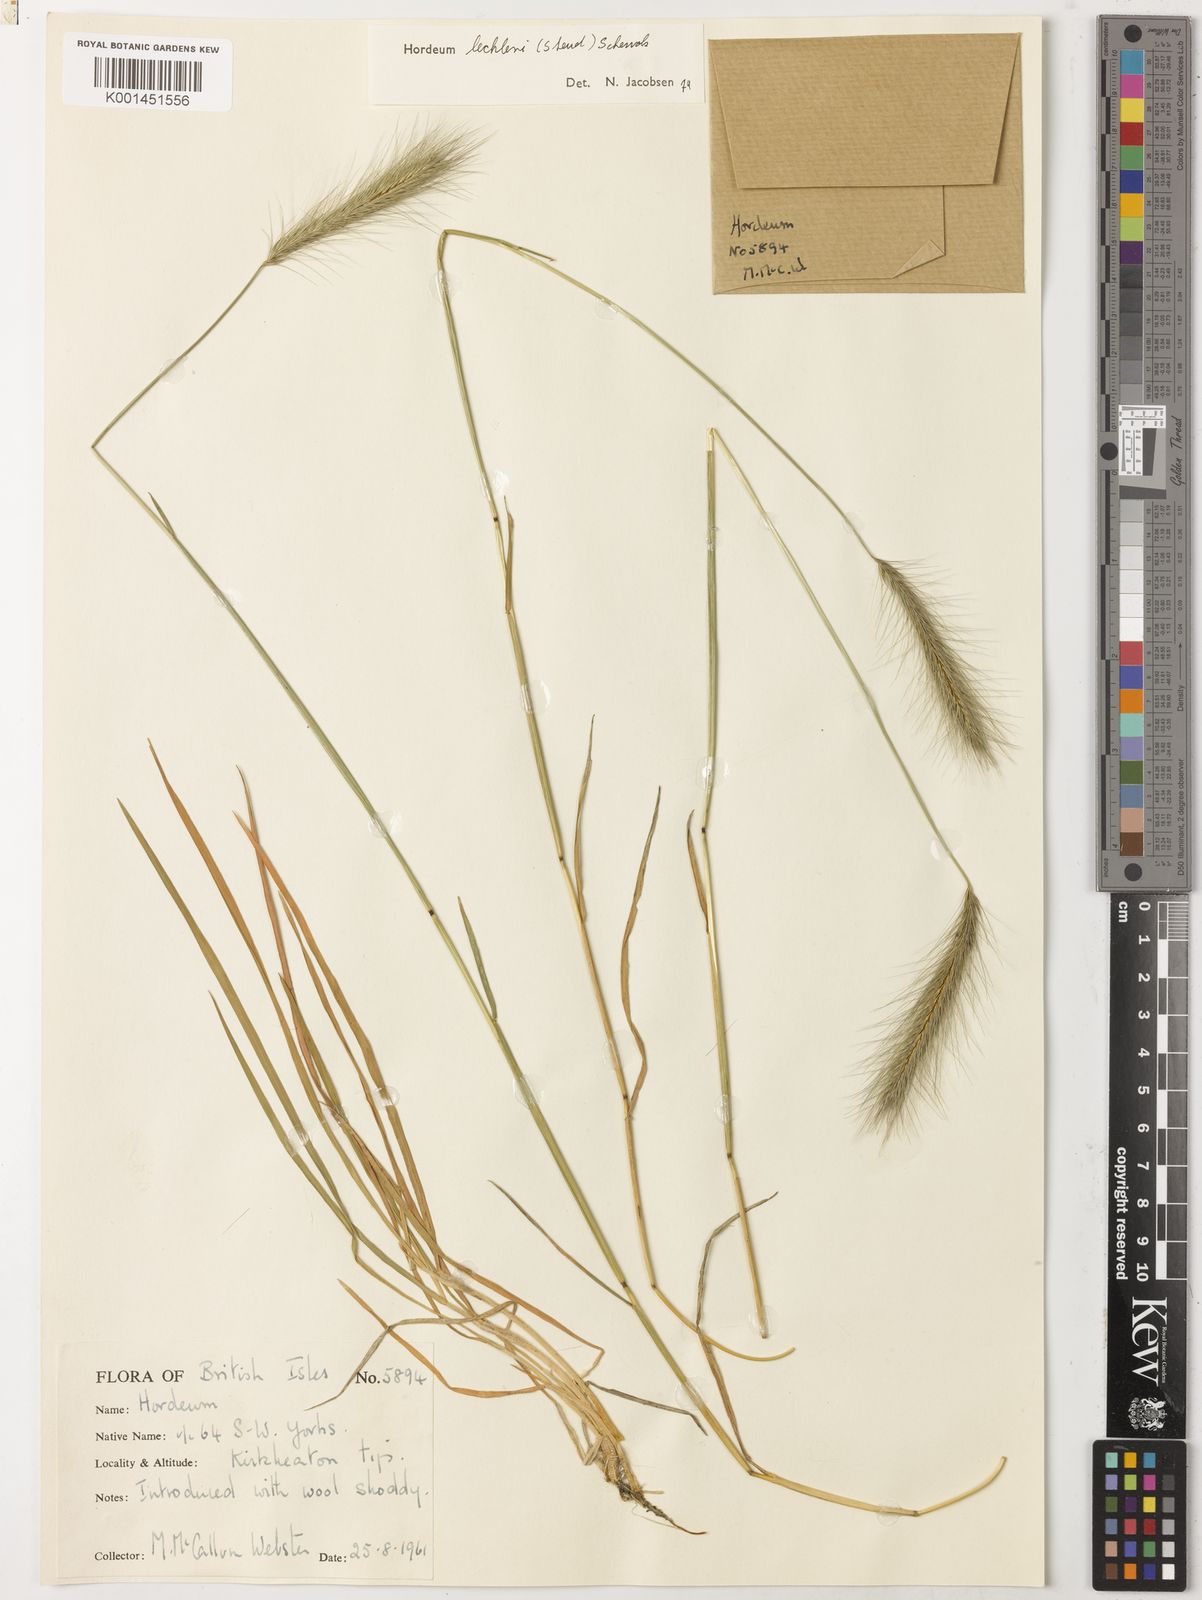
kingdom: Plantae
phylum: Tracheophyta
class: Liliopsida
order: Poales
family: Poaceae
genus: Hordeum
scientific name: Hordeum lechleri
